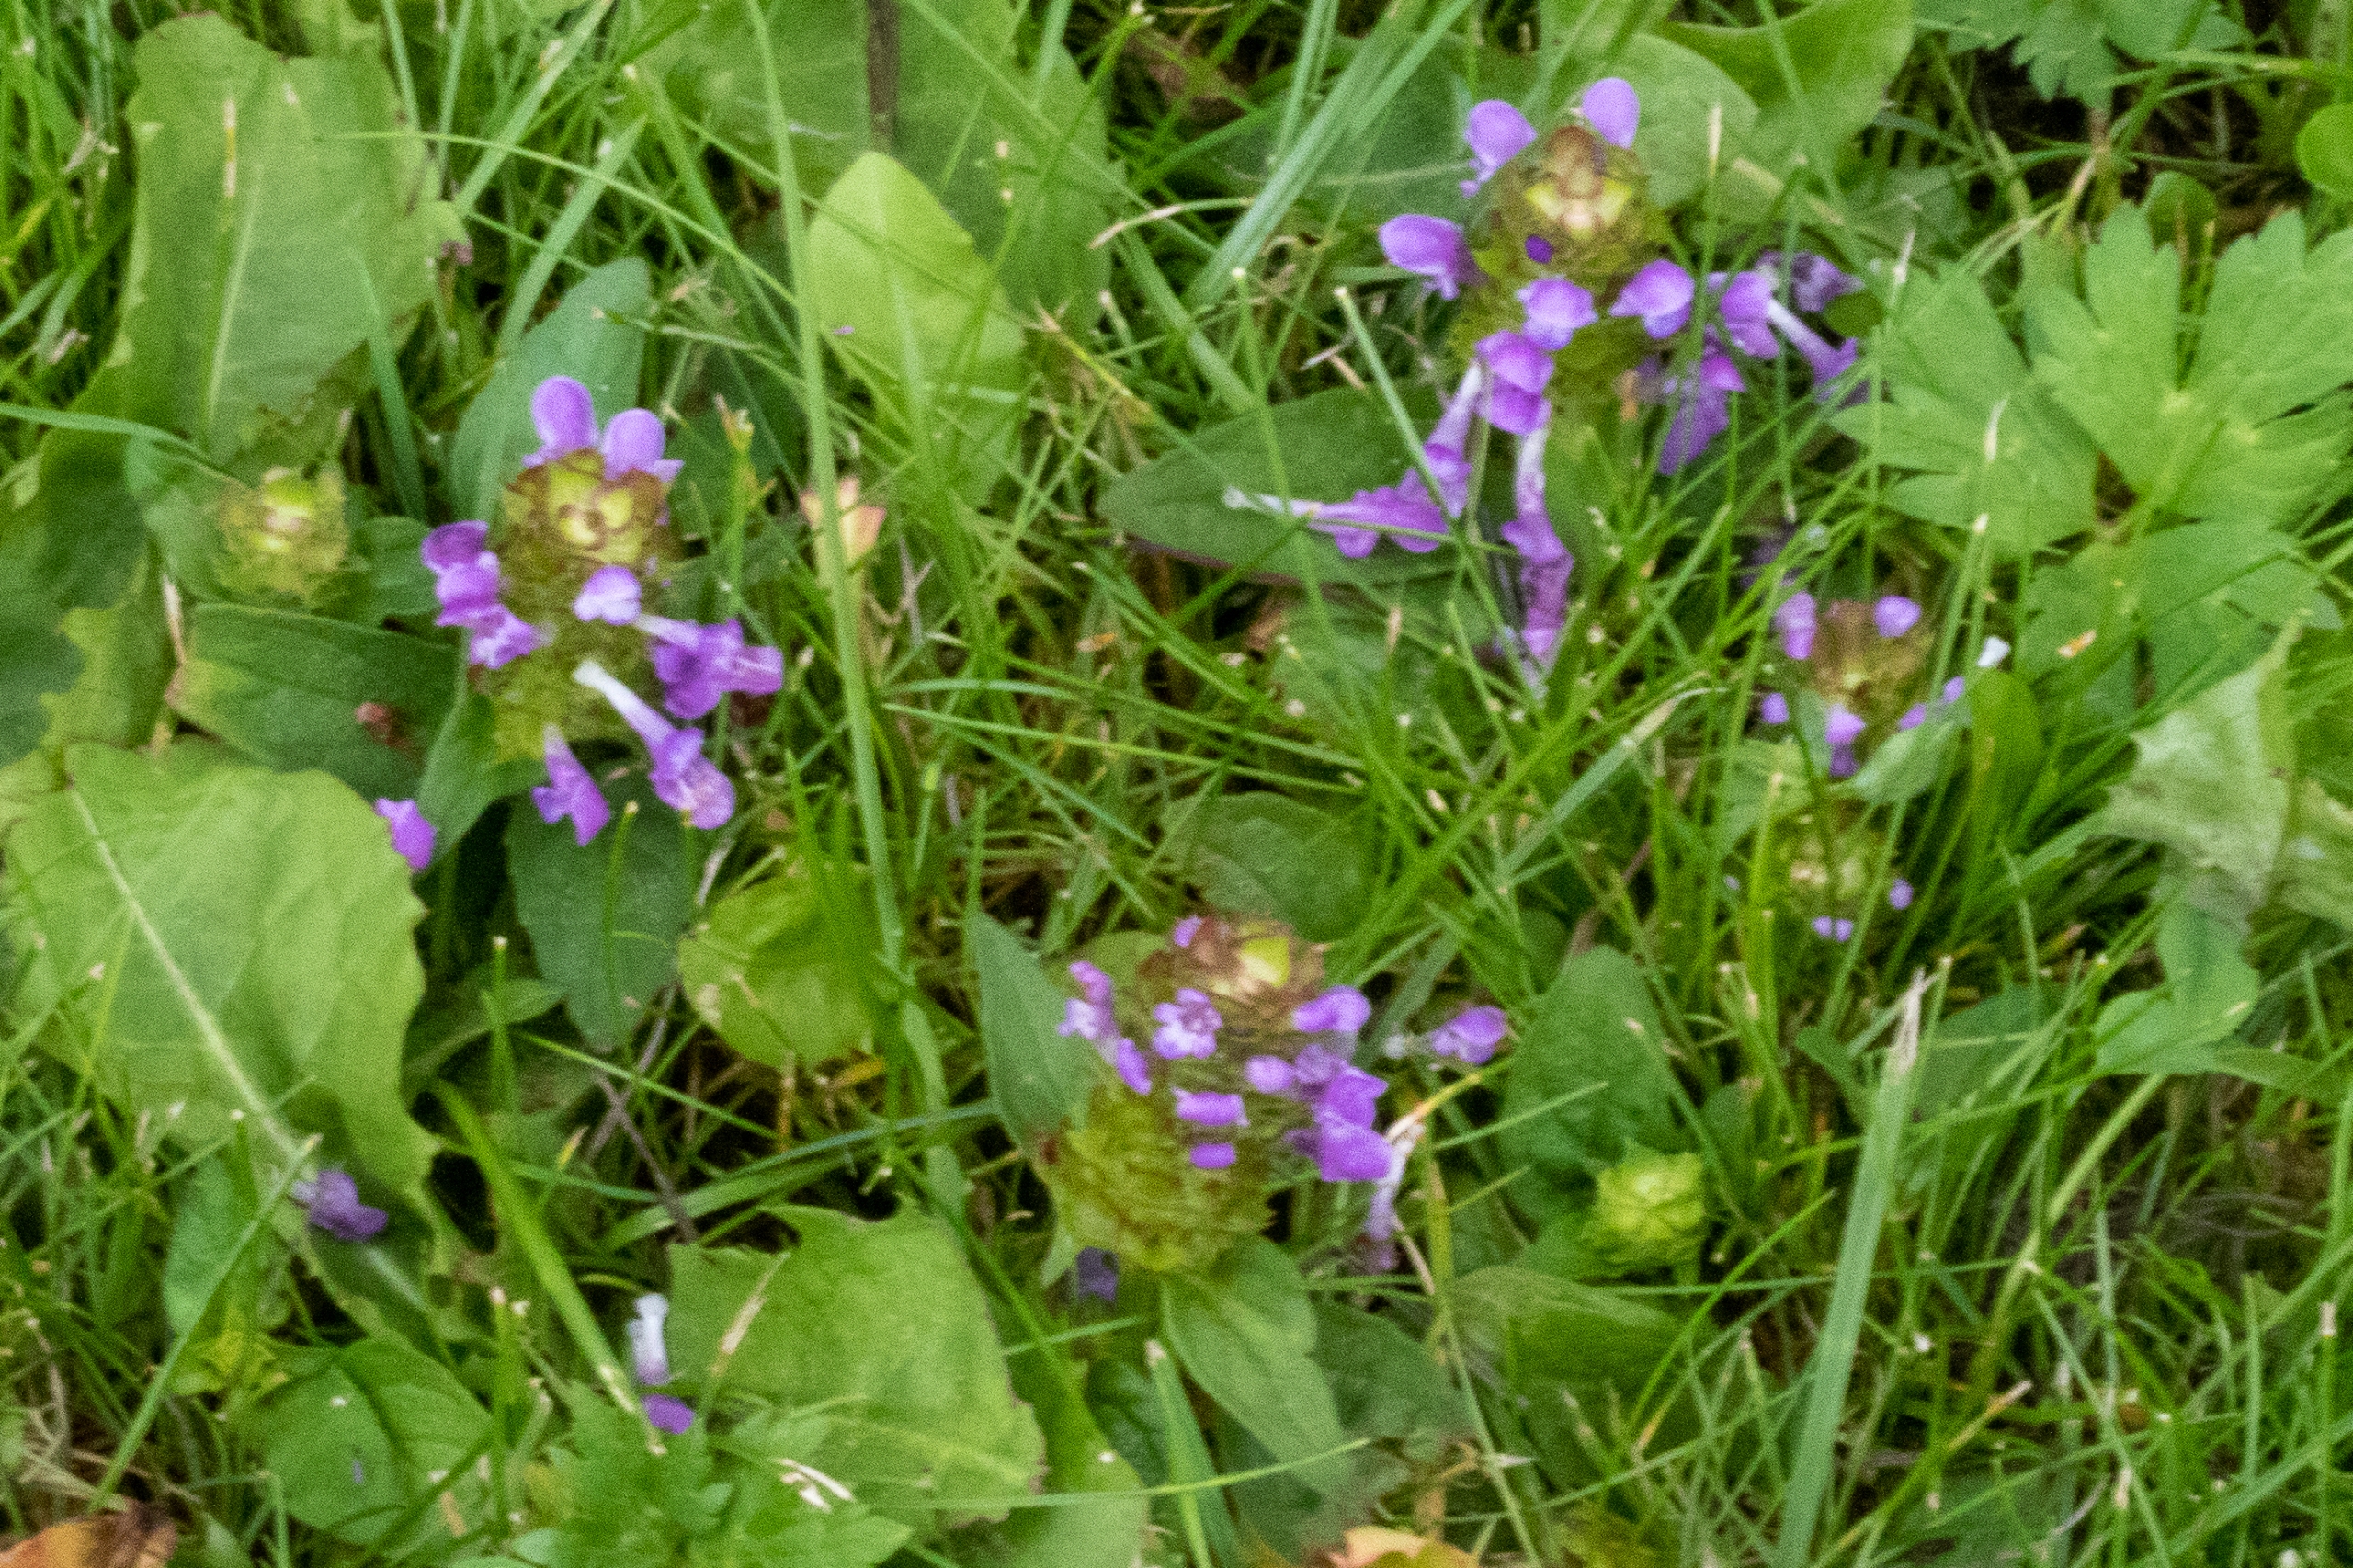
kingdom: Plantae
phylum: Tracheophyta
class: Magnoliopsida
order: Lamiales
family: Lamiaceae
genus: Prunella
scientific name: Prunella vulgaris
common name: Almindelig brunelle
